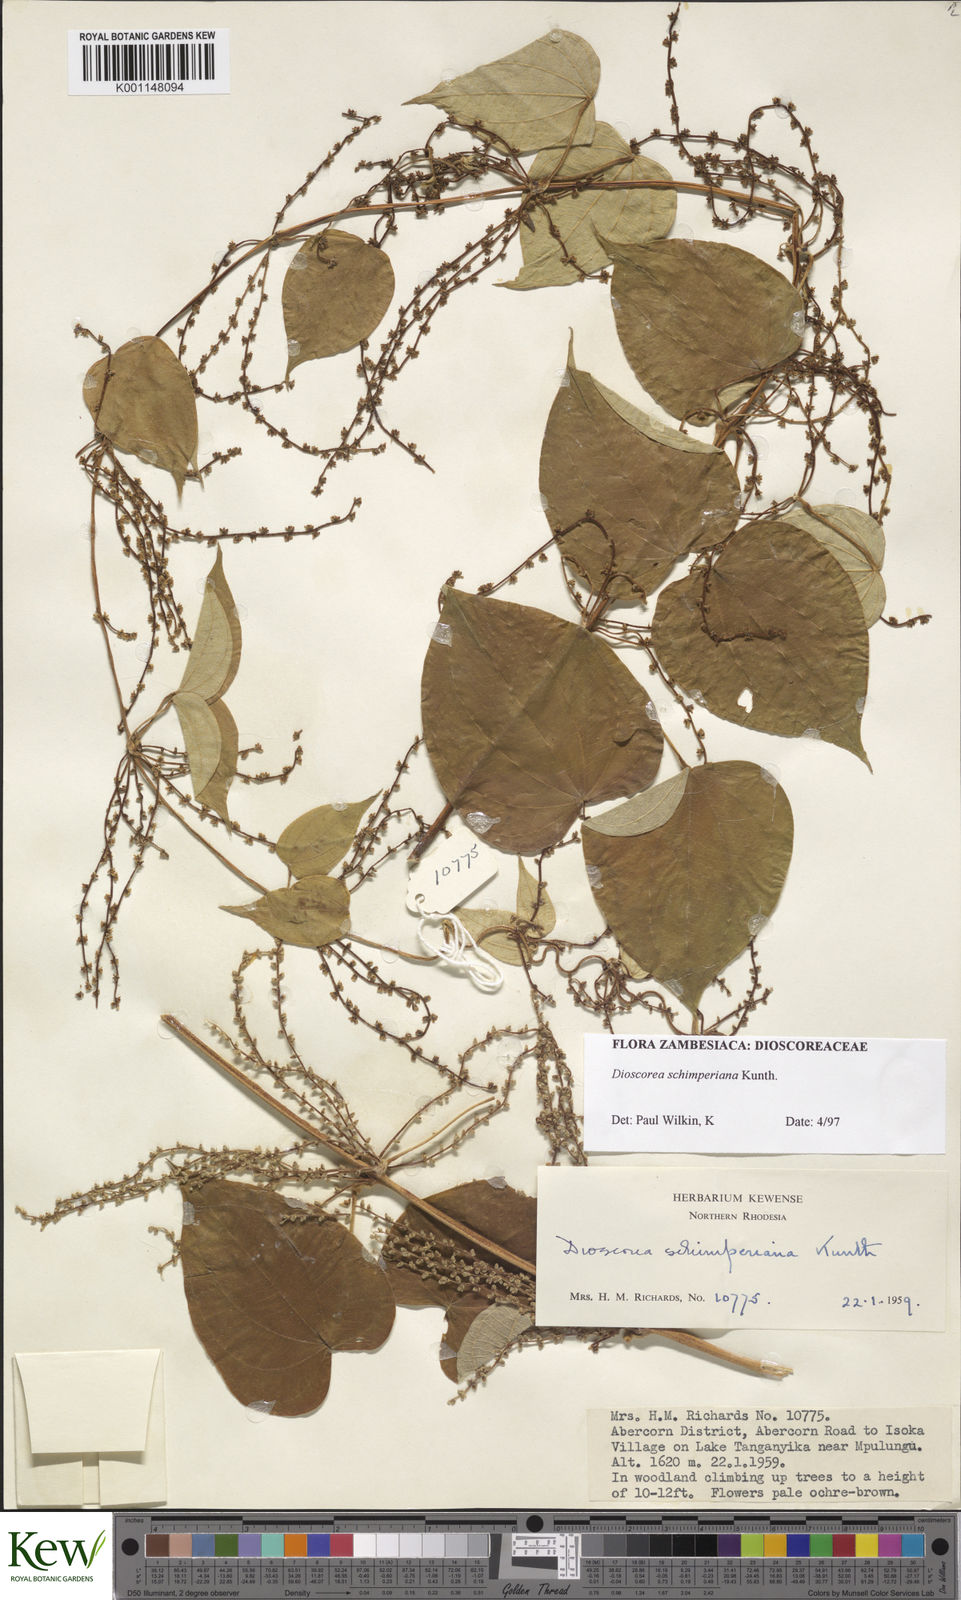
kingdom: Plantae
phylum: Tracheophyta
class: Liliopsida
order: Dioscoreales
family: Dioscoreaceae
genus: Dioscorea
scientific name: Dioscorea schimperiana
